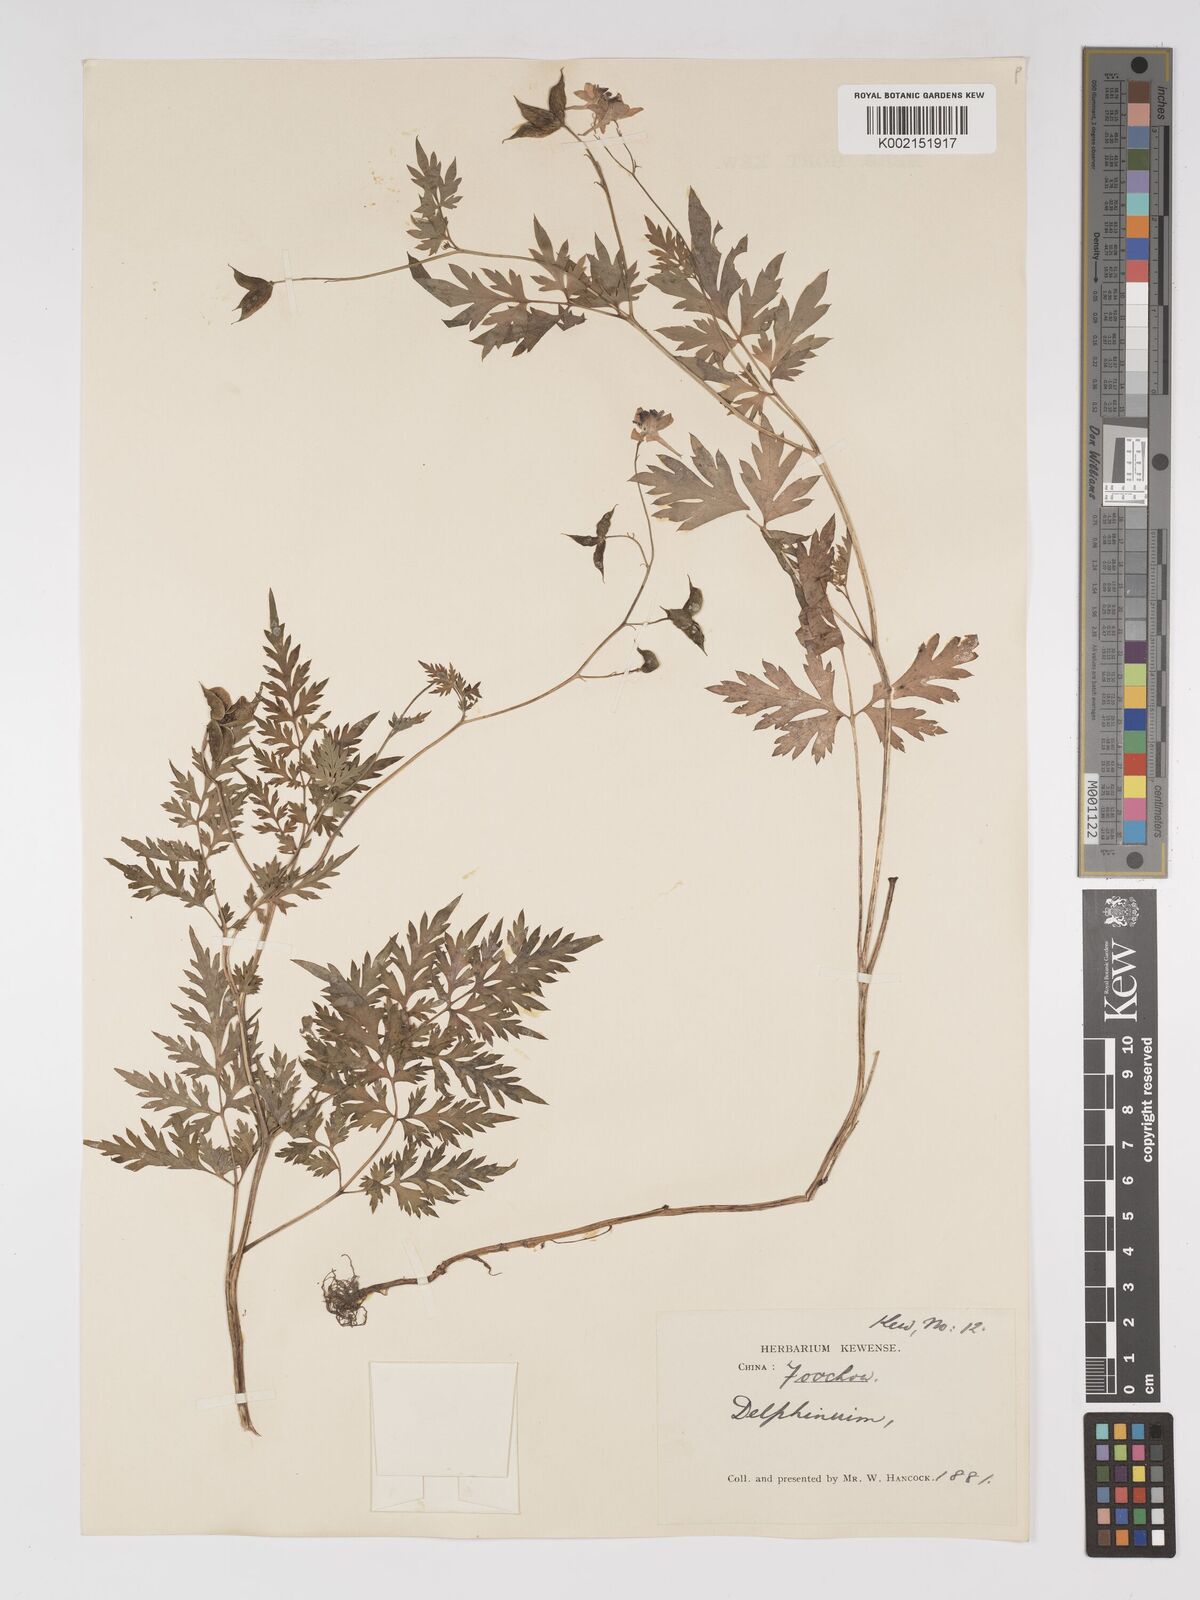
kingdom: Plantae
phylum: Tracheophyta
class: Magnoliopsida
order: Ranunculales
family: Ranunculaceae
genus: Delphinium
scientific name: Delphinium anthriscifolium
